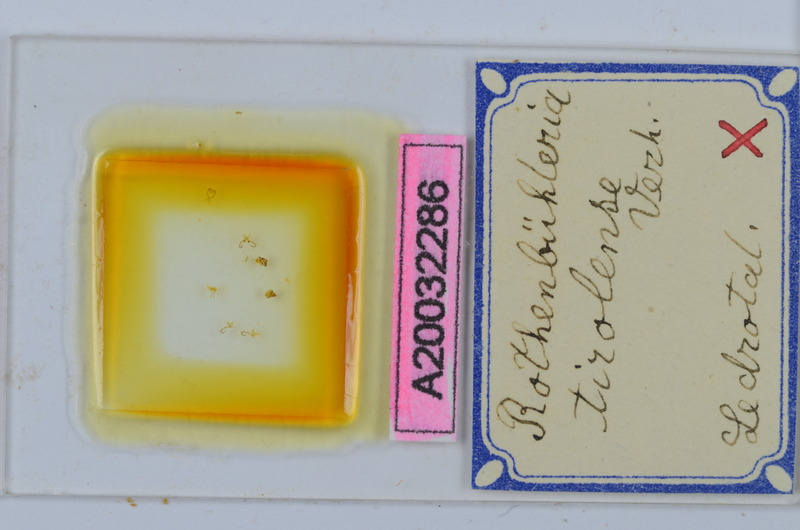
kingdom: Animalia
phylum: Arthropoda
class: Diplopoda
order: Chordeumatida
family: Craspedosomatidae
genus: Rothenbuehleria
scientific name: Rothenbuehleria tirolense
